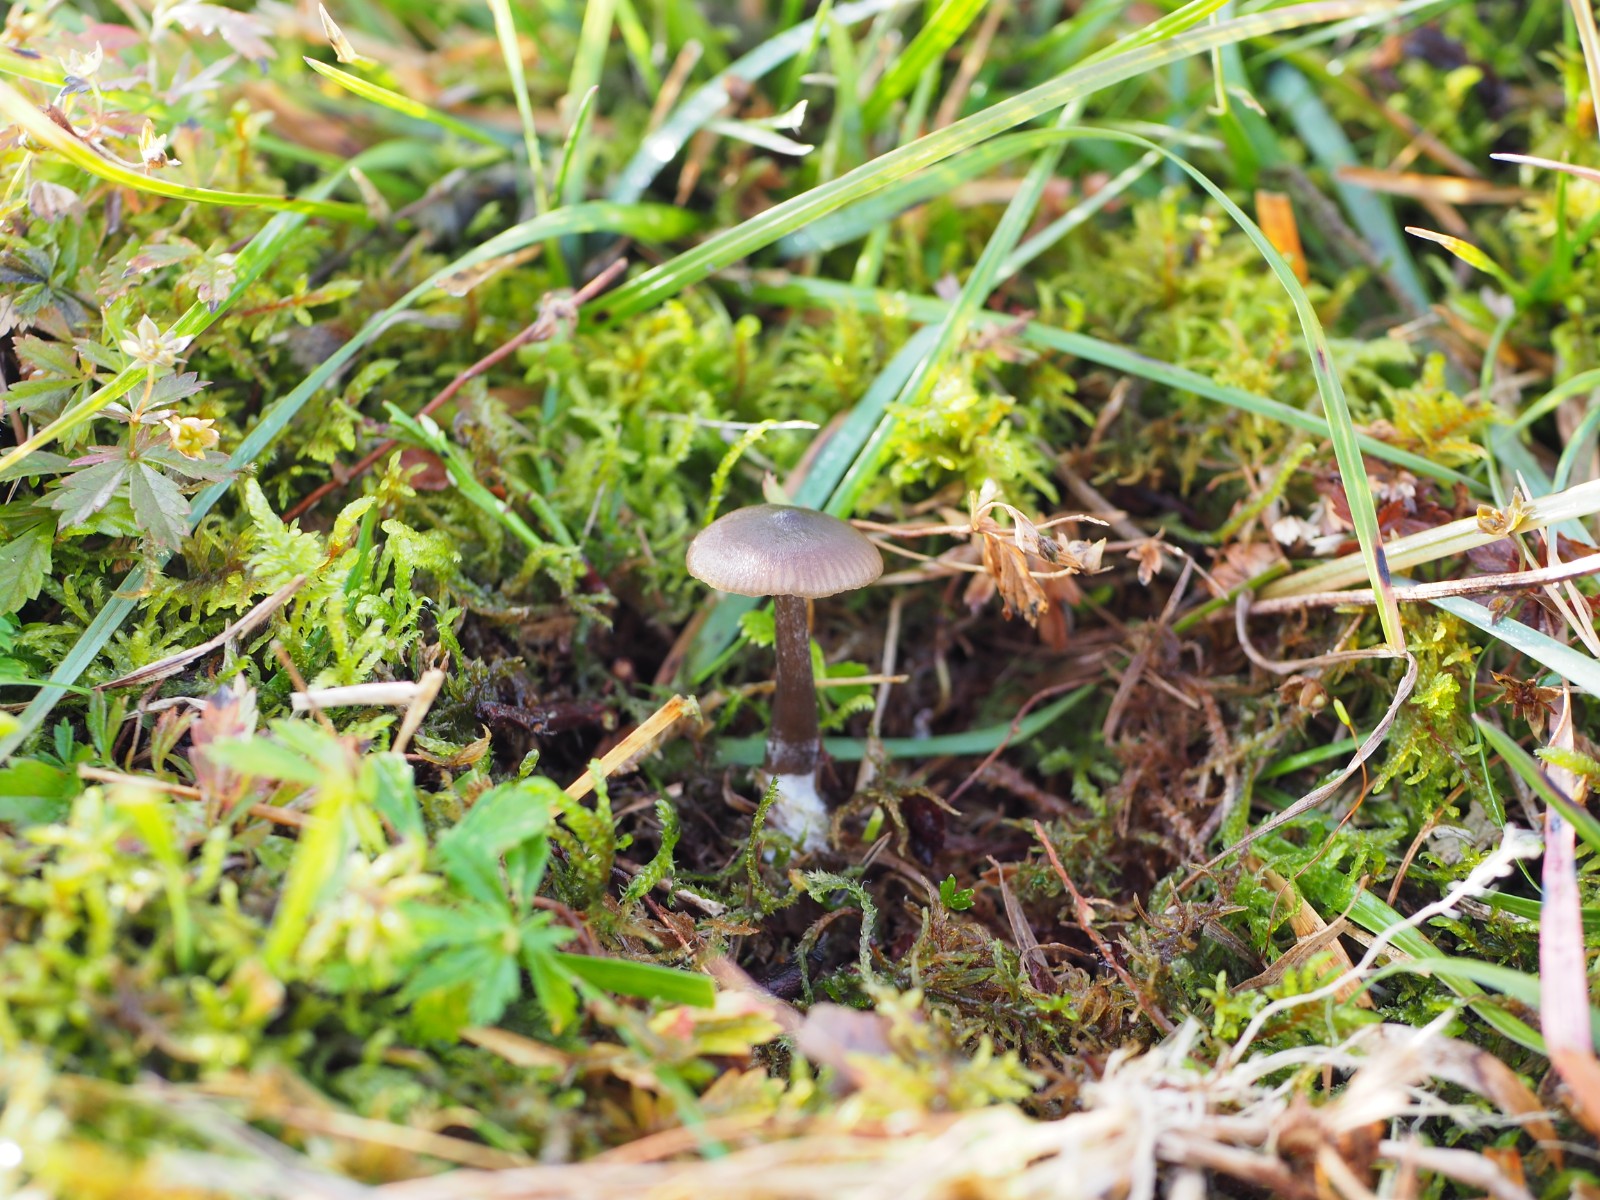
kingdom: Fungi
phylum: Basidiomycota
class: Agaricomycetes
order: Agaricales
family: Entolomataceae
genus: Entoloma
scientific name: Entoloma sericeum
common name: silkeglinsende rødblad
